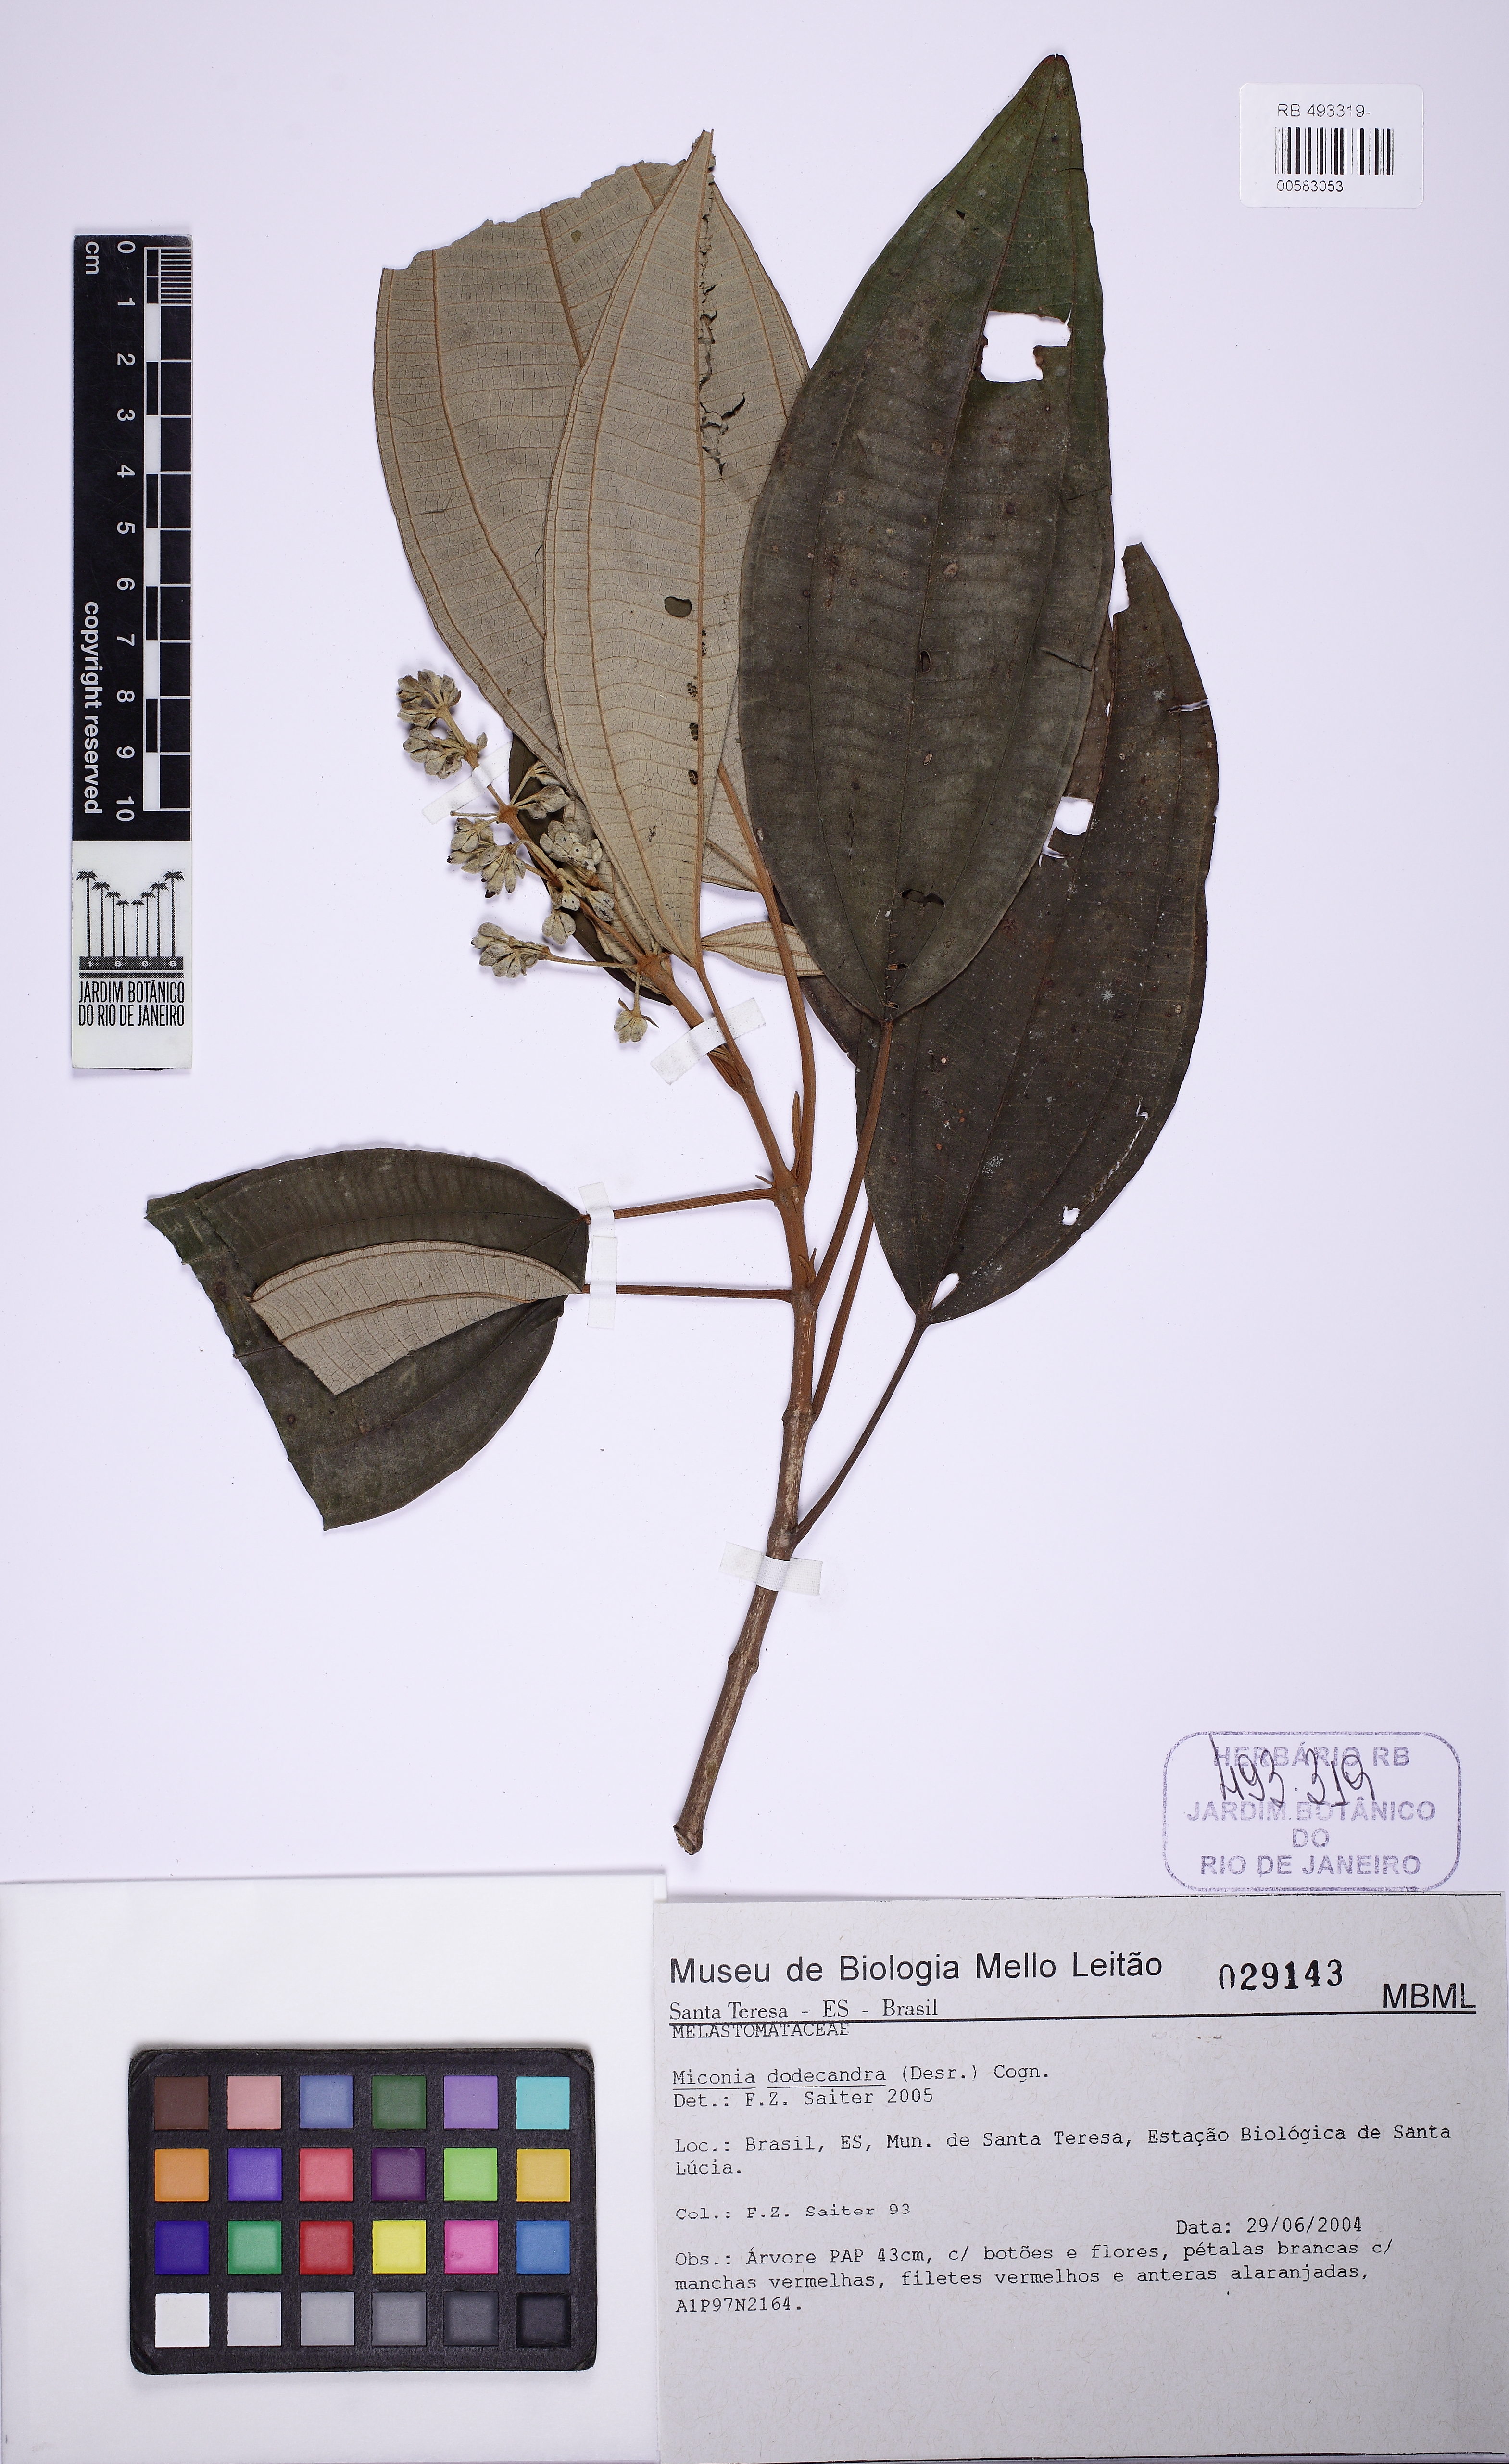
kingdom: Plantae
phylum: Tracheophyta
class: Magnoliopsida
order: Myrtales
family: Melastomataceae
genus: Miconia
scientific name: Miconia dodecandra
